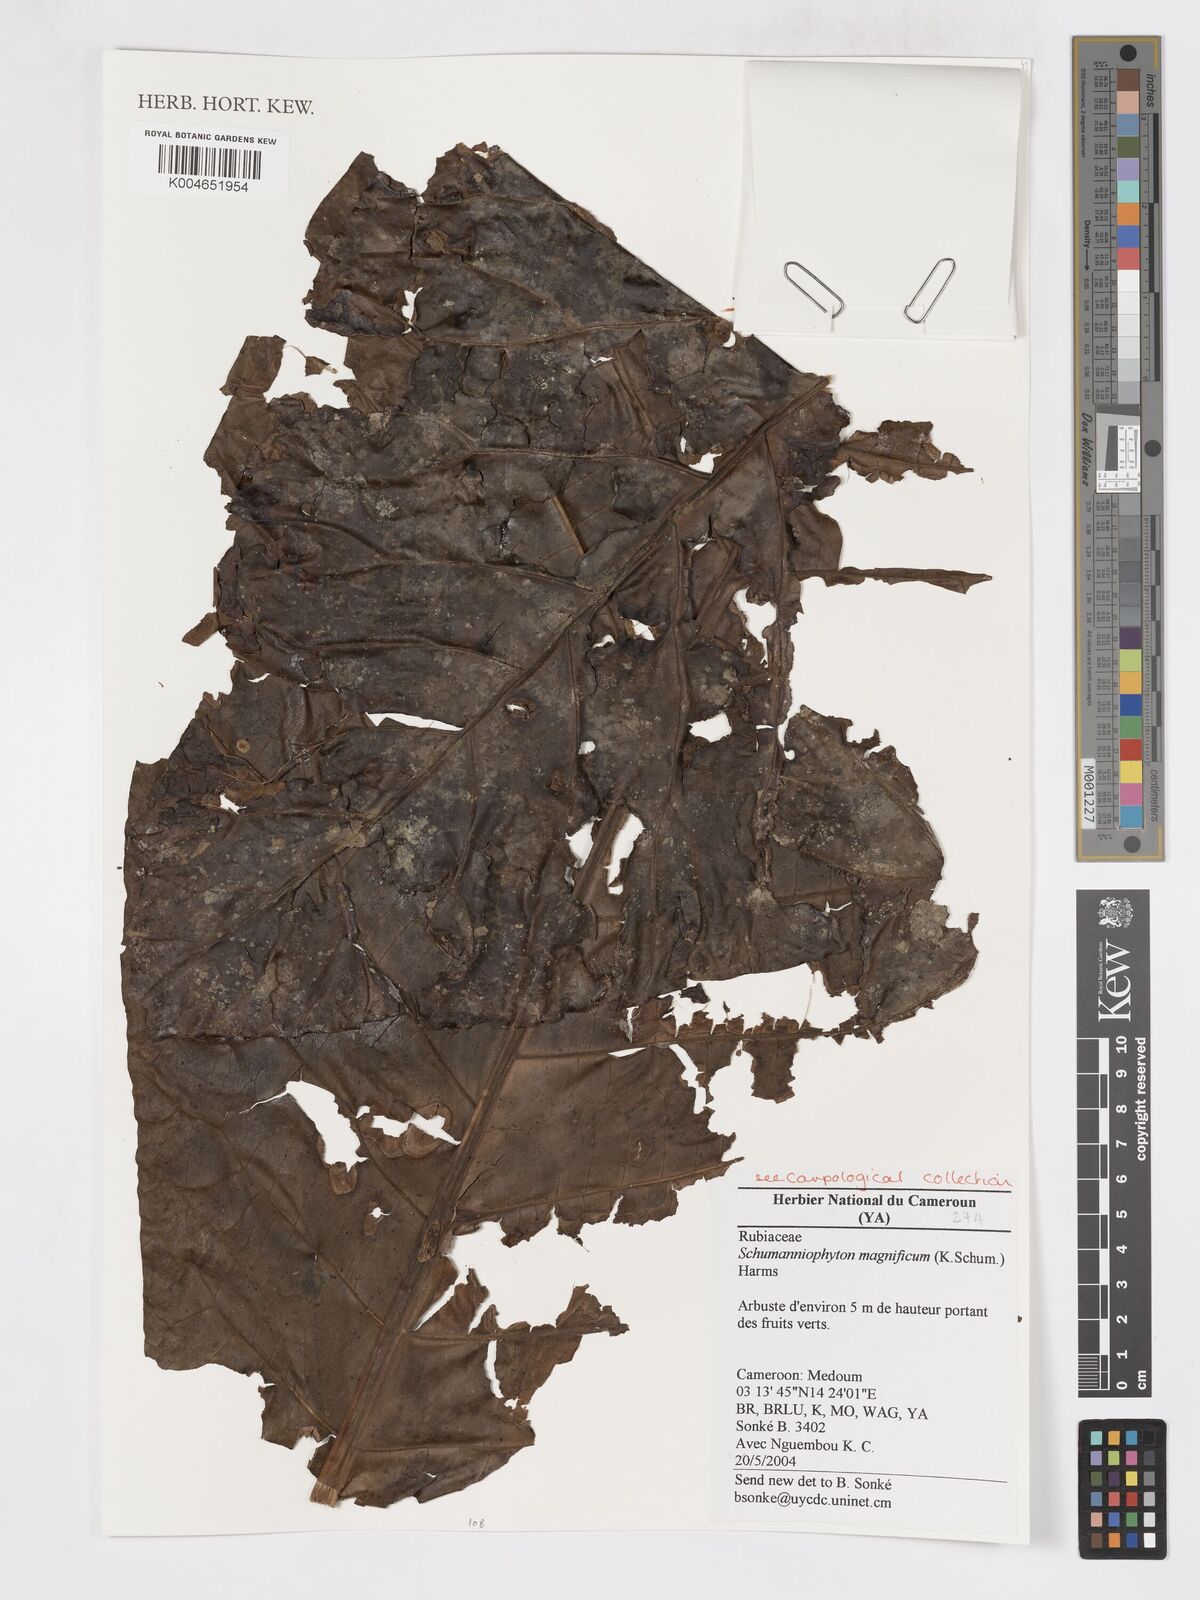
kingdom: Plantae
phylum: Tracheophyta
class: Magnoliopsida
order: Gentianales
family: Rubiaceae
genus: Schumanniophyton
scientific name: Schumanniophyton magnificum
